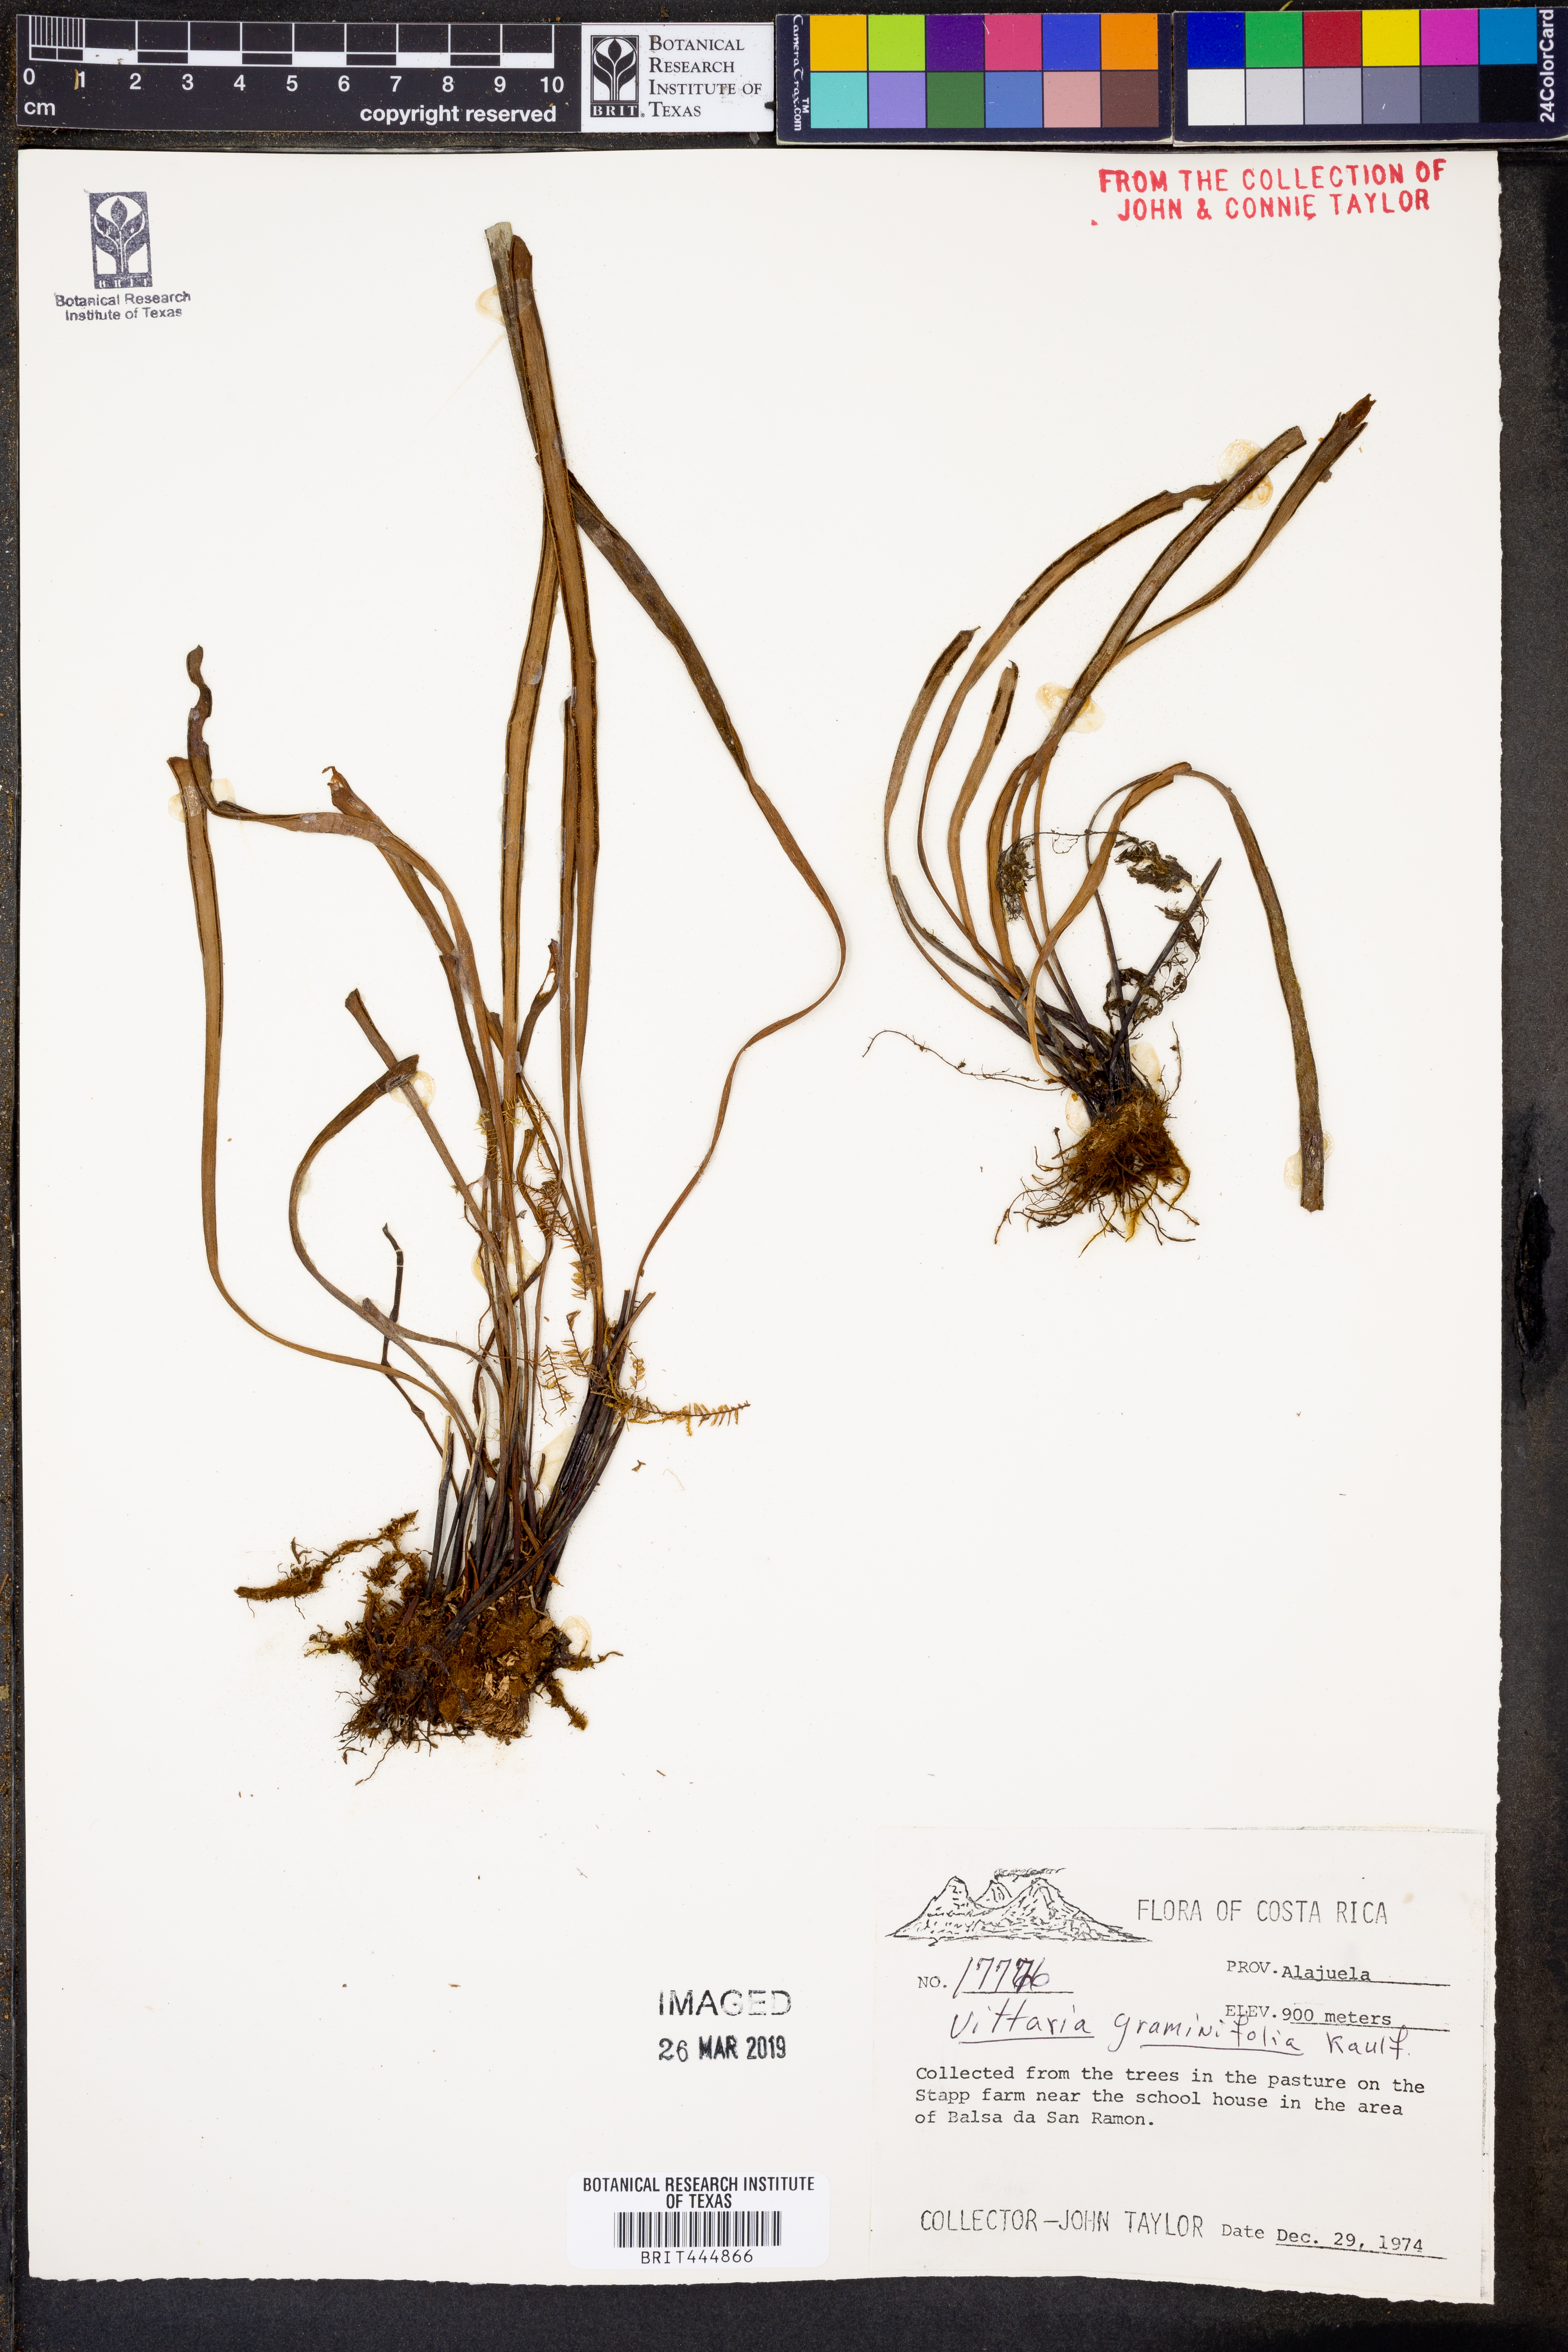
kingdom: Plantae
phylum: Tracheophyta
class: Polypodiopsida
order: Polypodiales
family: Pteridaceae
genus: Vittaria
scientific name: Vittaria graminifolia
